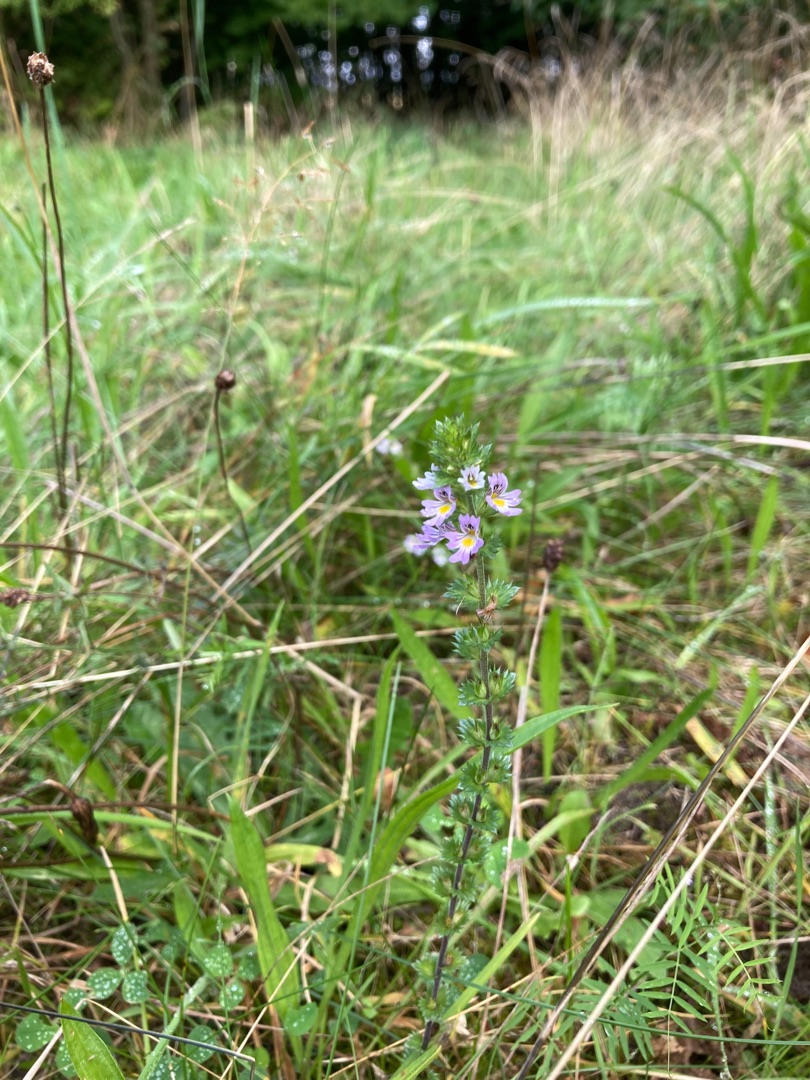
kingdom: Plantae
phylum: Tracheophyta
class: Magnoliopsida
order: Lamiales
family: Orobanchaceae
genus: Euphrasia
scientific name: Euphrasia stricta
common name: Spids øjentrøst
